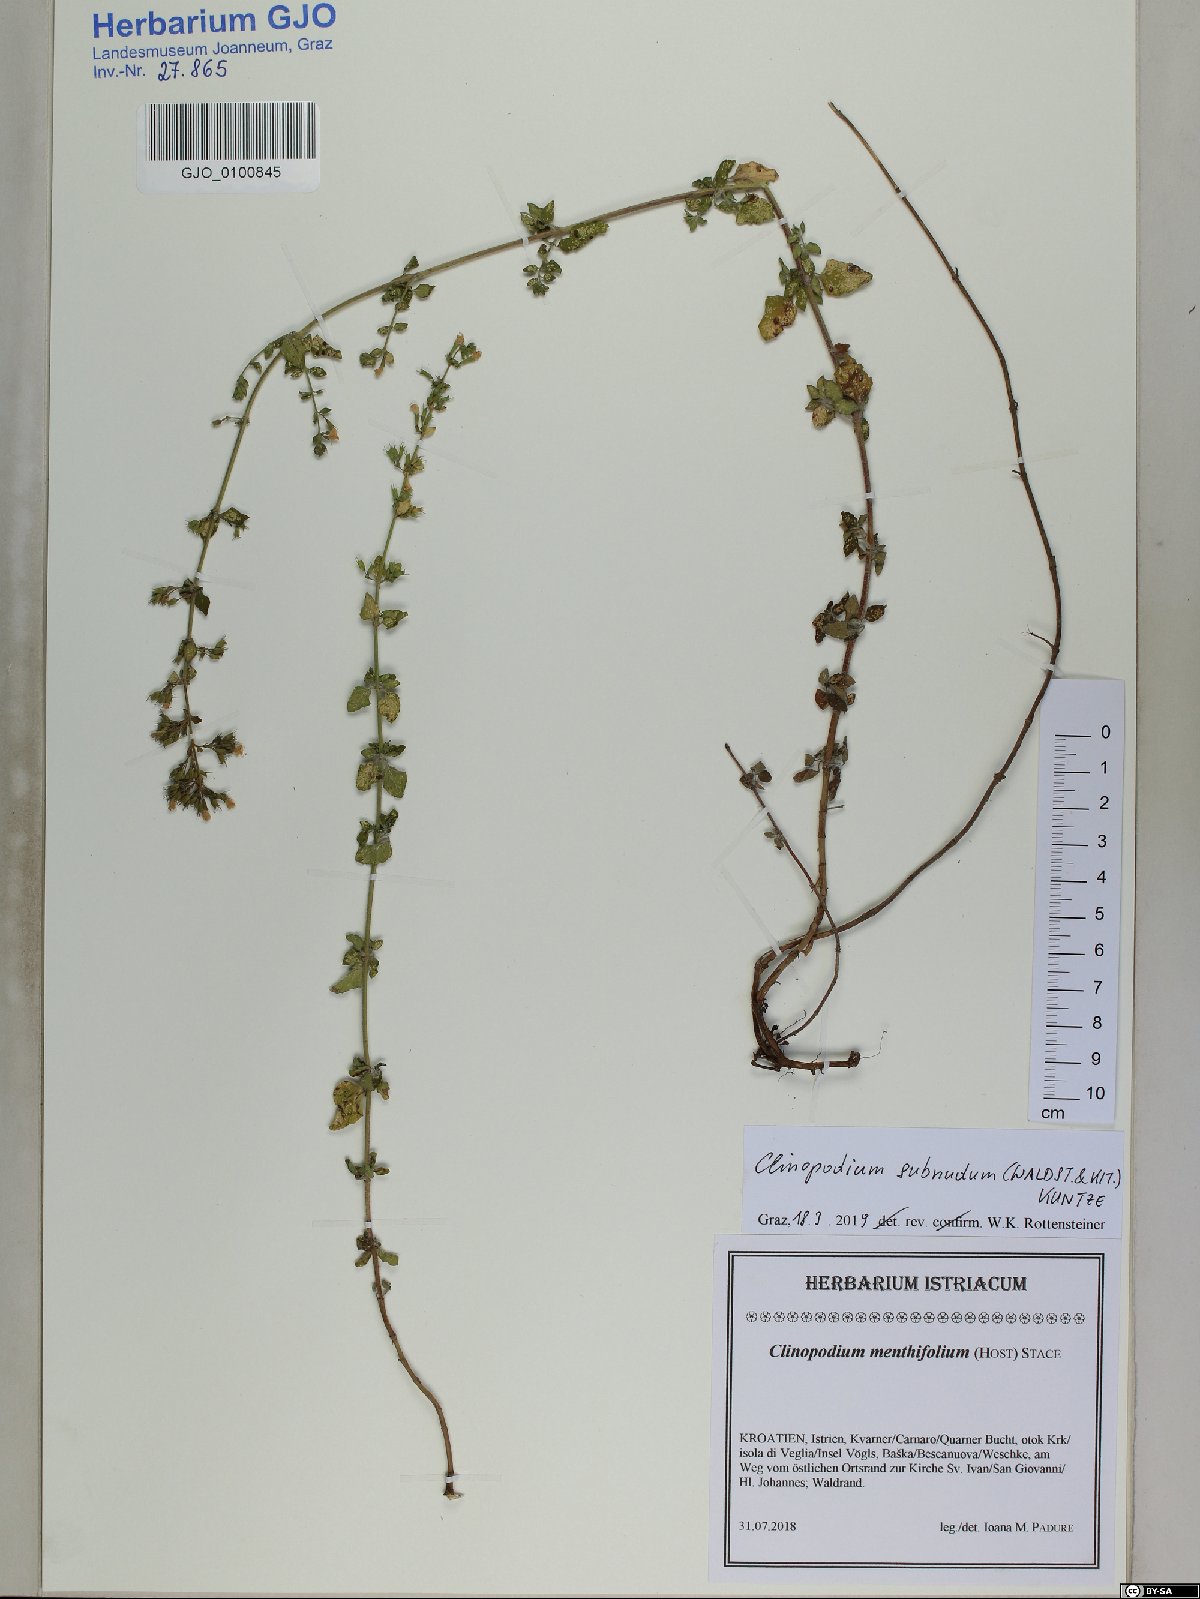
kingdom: Plantae
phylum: Tracheophyta
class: Magnoliopsida
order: Lamiales
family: Lamiaceae
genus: Clinopodium
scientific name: Clinopodium nepeta
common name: Lesser calamint
